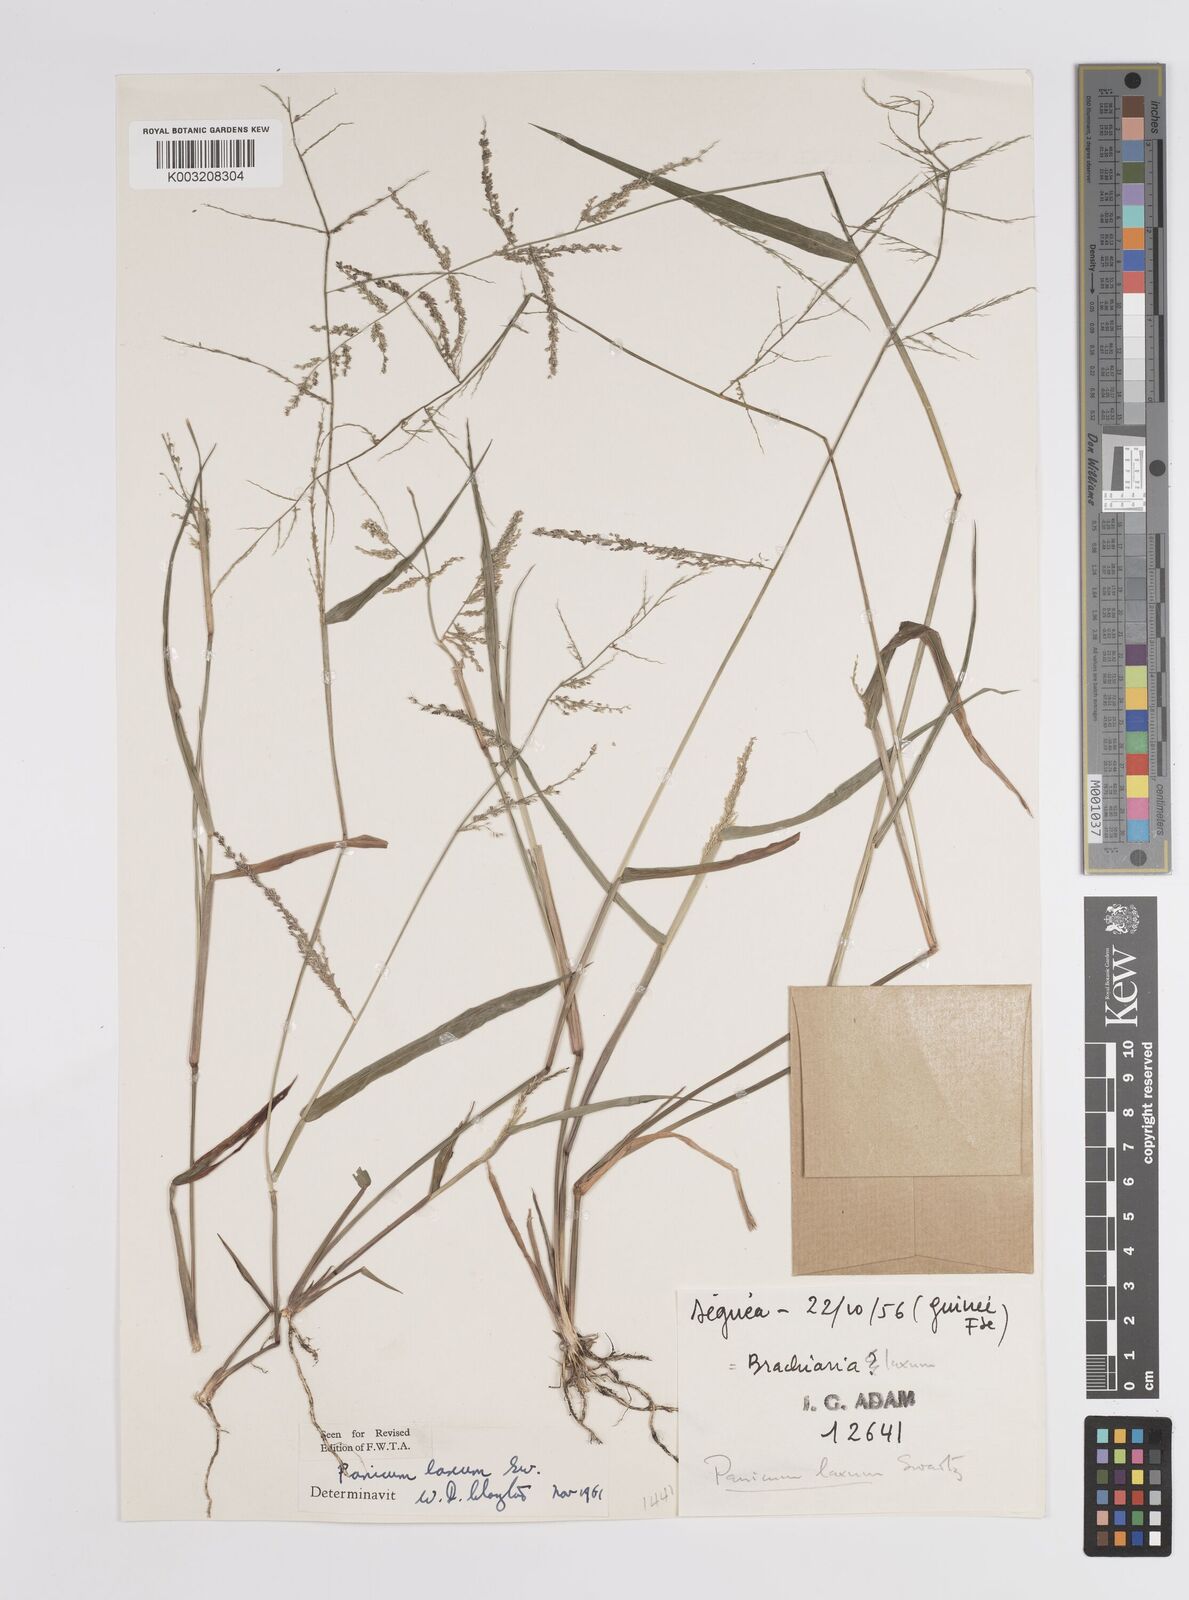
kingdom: Plantae
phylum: Tracheophyta
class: Liliopsida
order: Poales
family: Poaceae
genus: Steinchisma
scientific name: Steinchisma laxum
